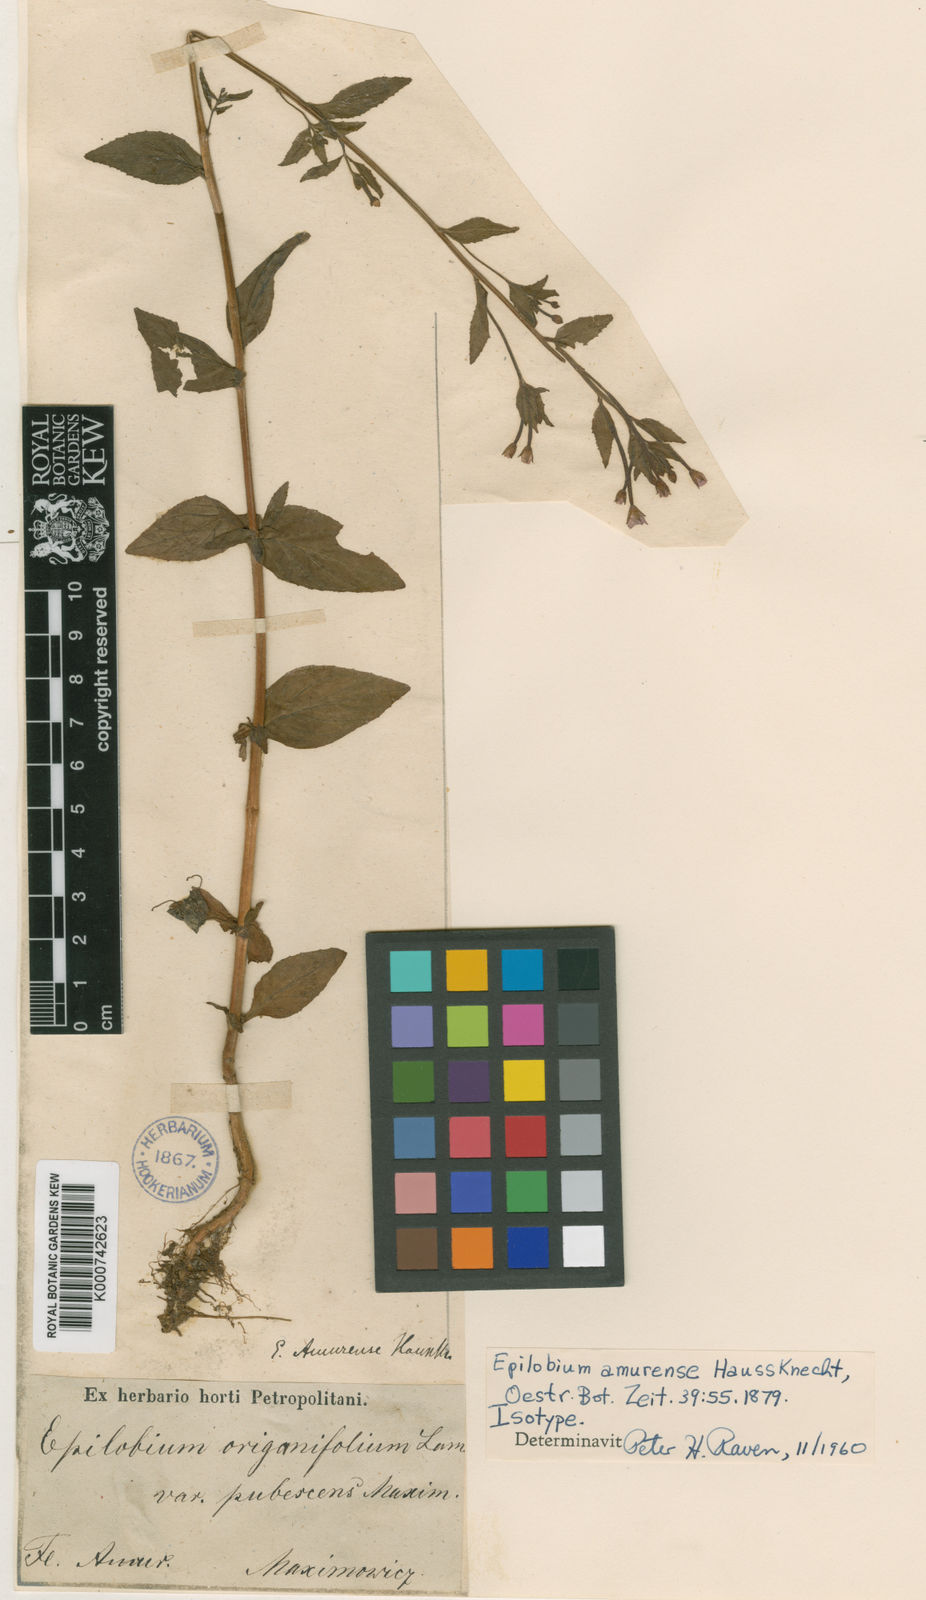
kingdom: Plantae
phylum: Tracheophyta
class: Magnoliopsida
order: Myrtales
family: Onagraceae
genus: Epilobium
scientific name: Epilobium amurense
